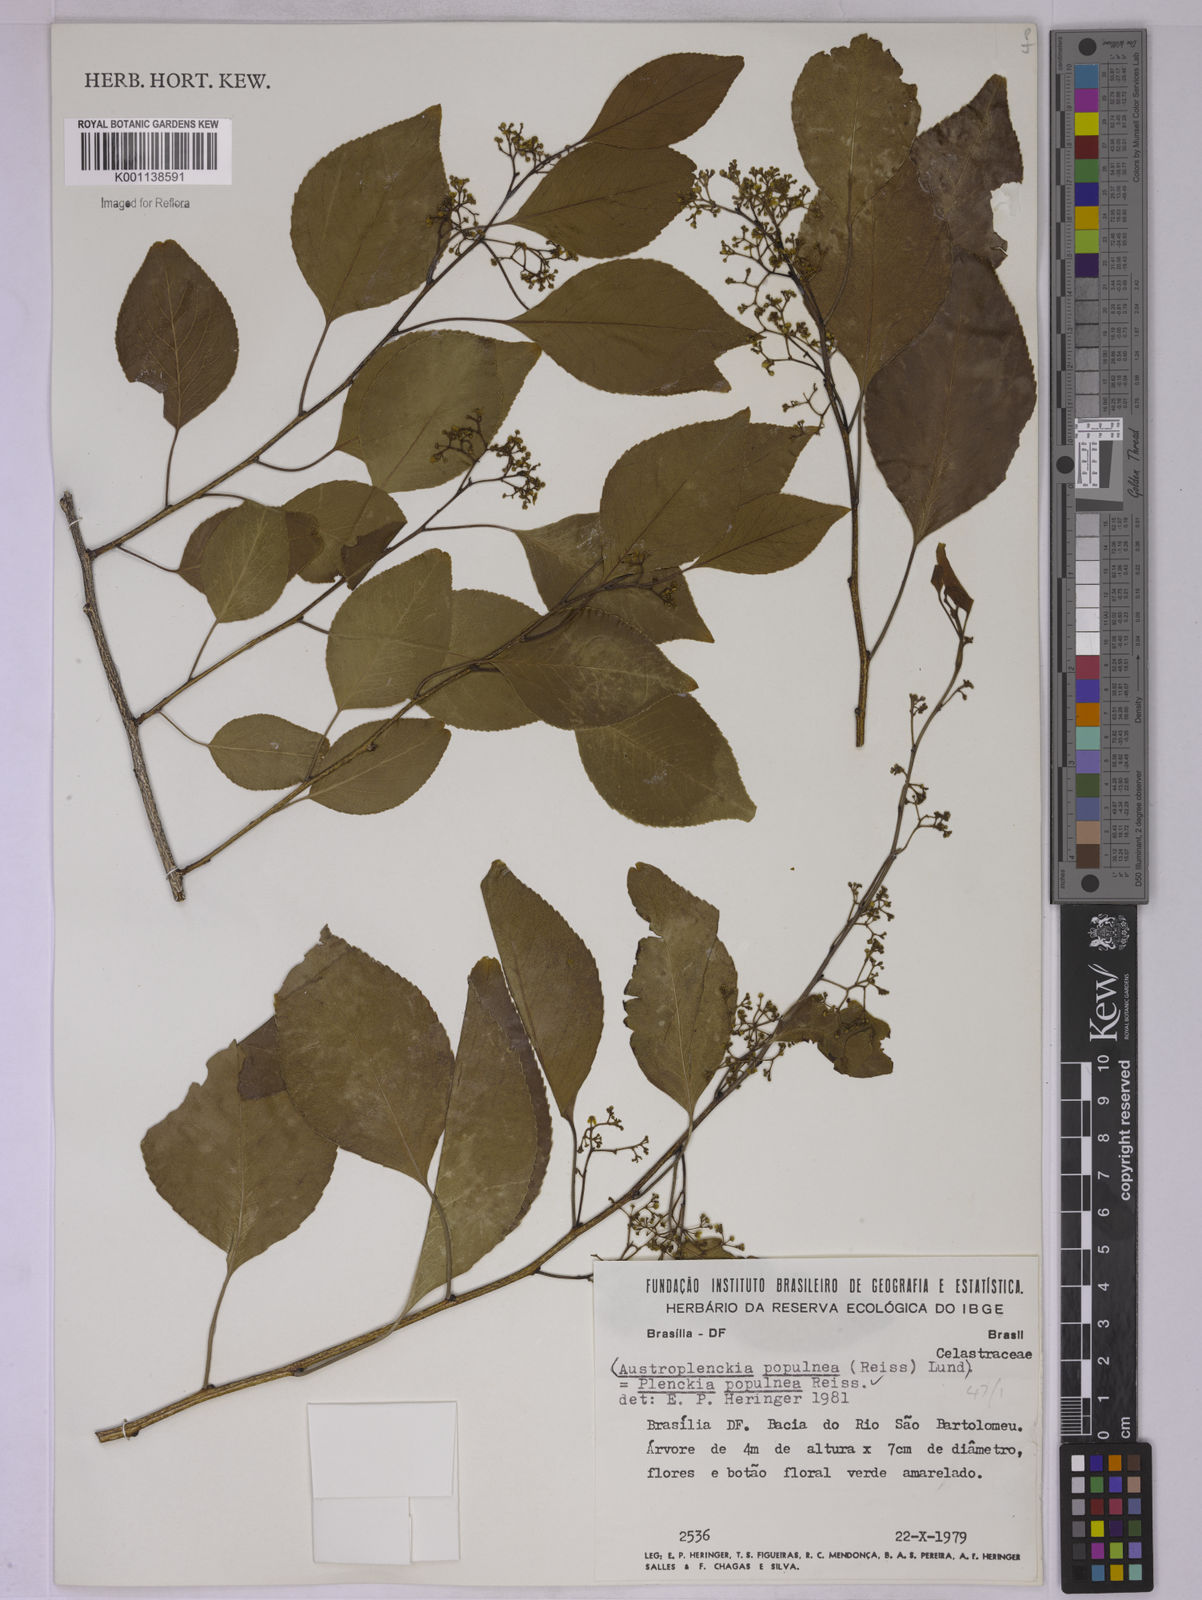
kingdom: Plantae
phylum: Tracheophyta
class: Magnoliopsida
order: Celastrales
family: Celastraceae
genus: Plenckia
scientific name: Plenckia populnea
